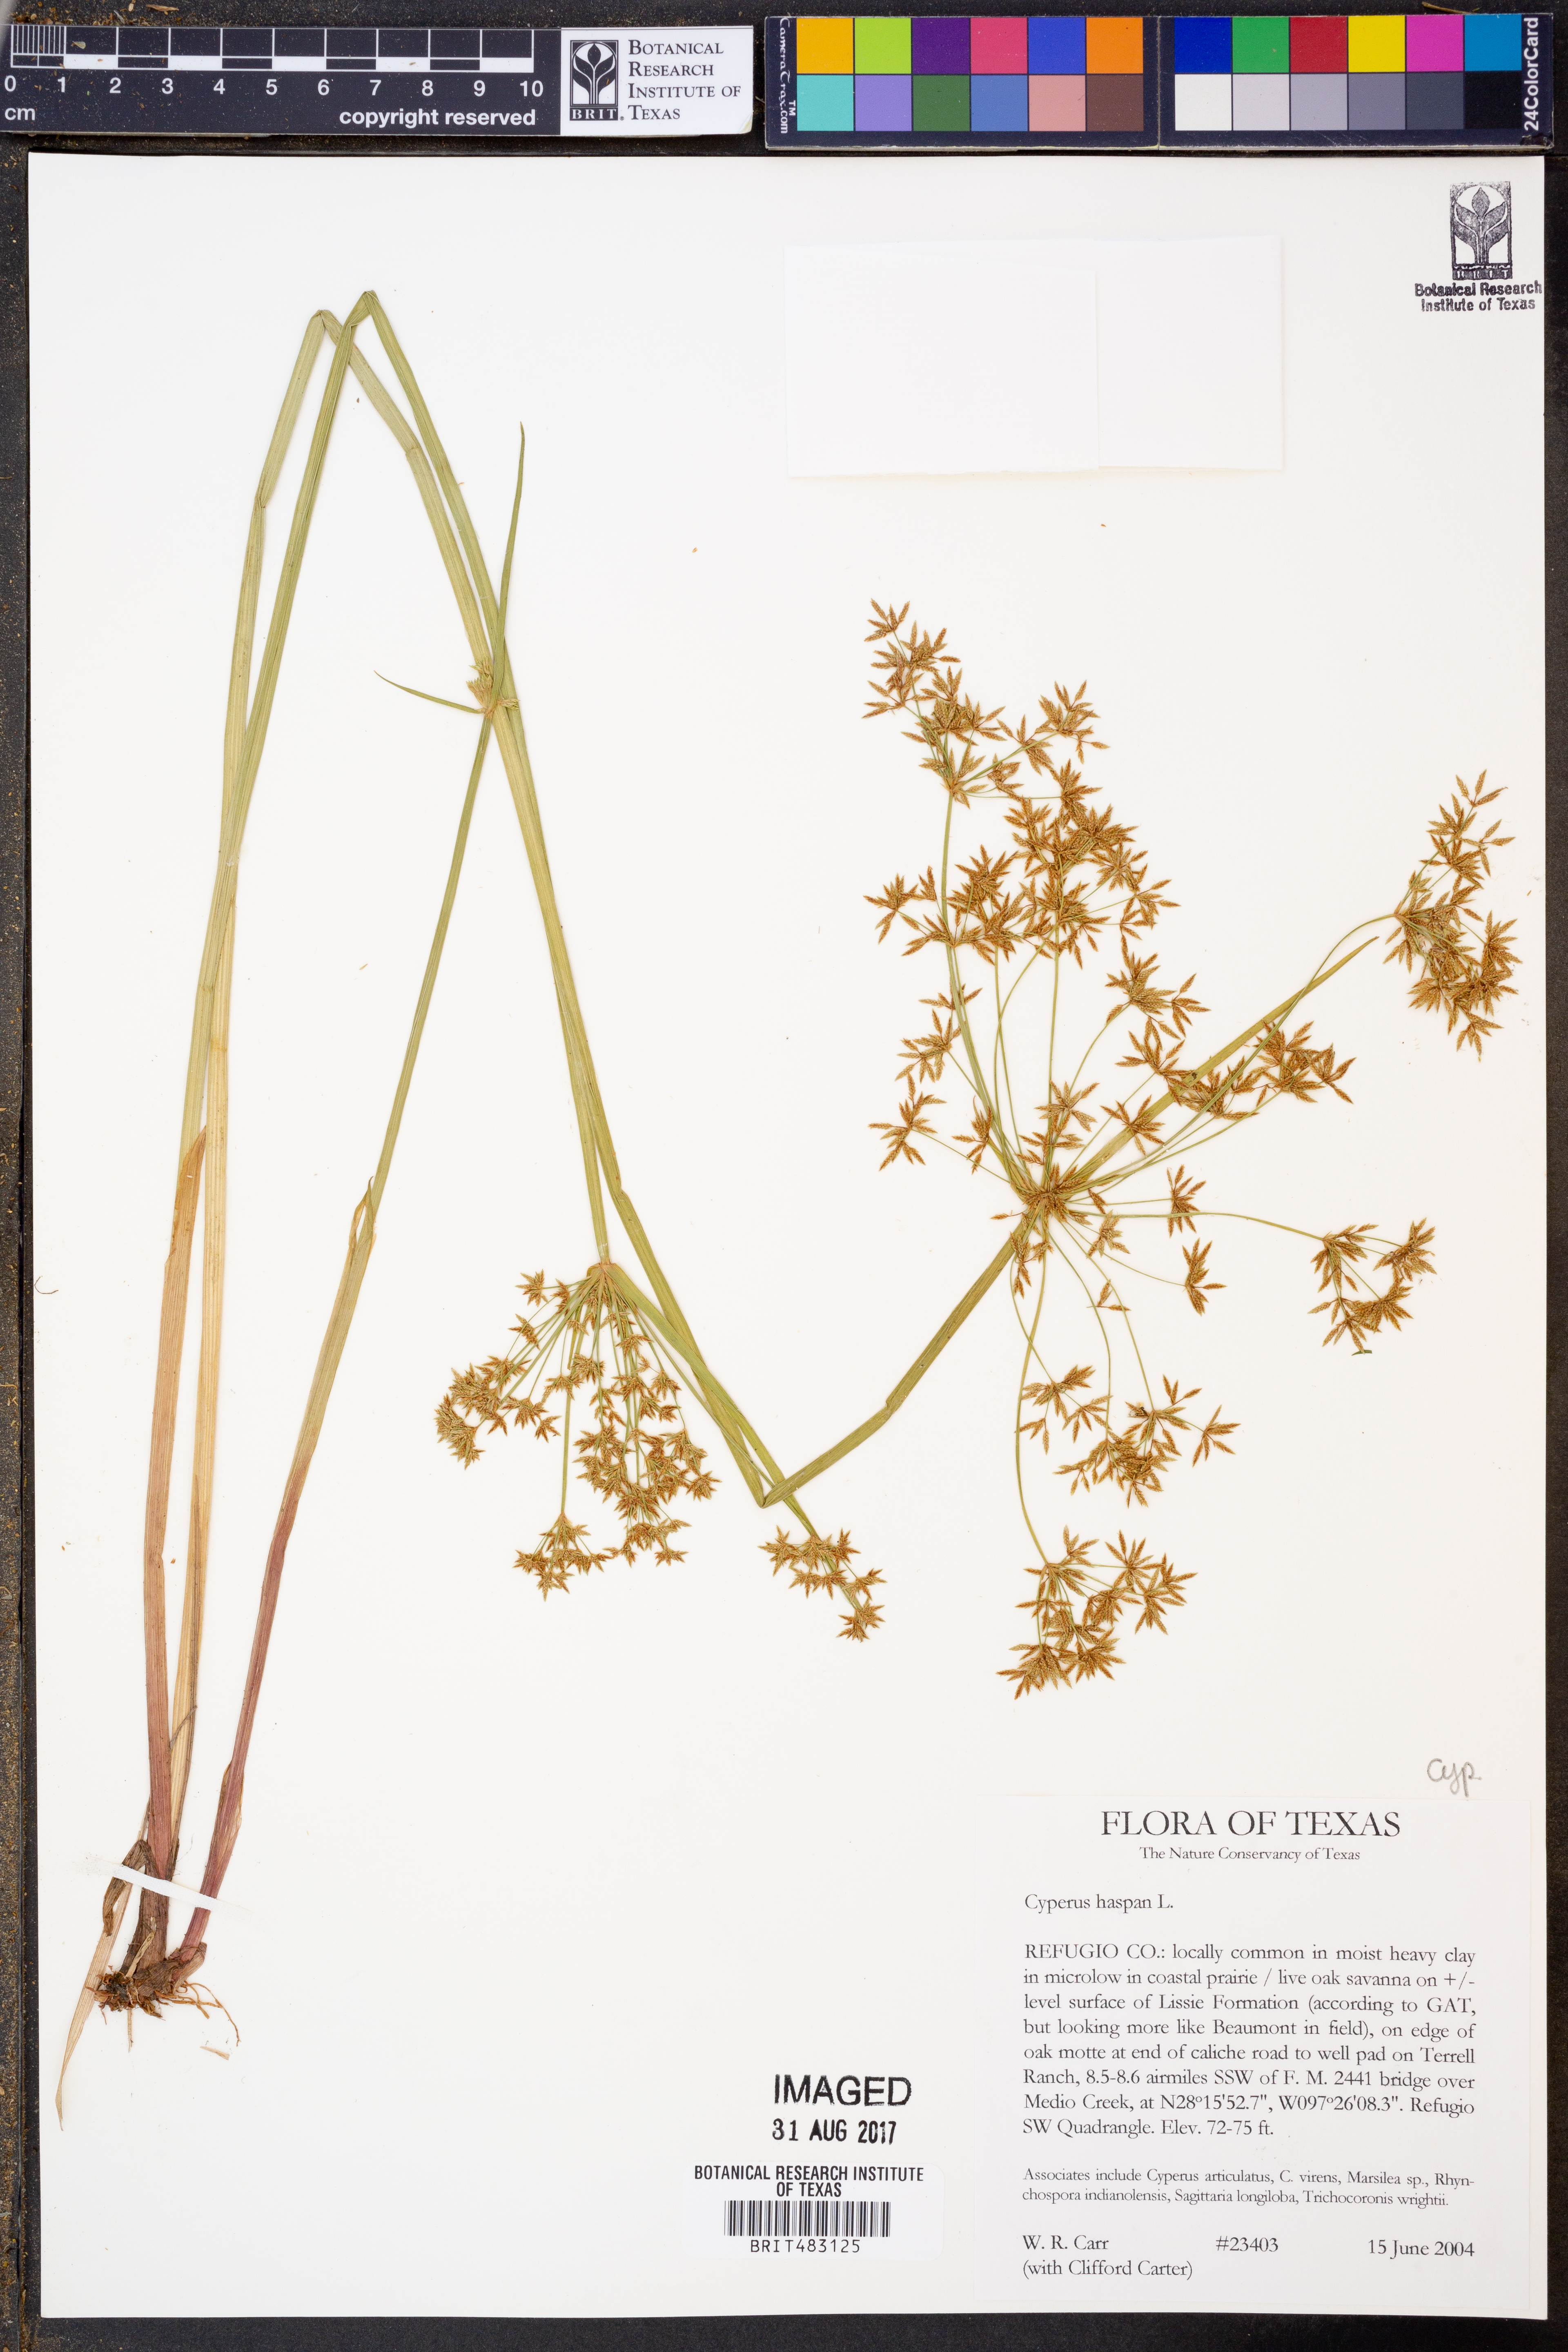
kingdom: Plantae
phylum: Tracheophyta
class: Liliopsida
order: Poales
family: Cyperaceae
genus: Cyperus
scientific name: Cyperus haspan
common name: Haspan flatsedge
